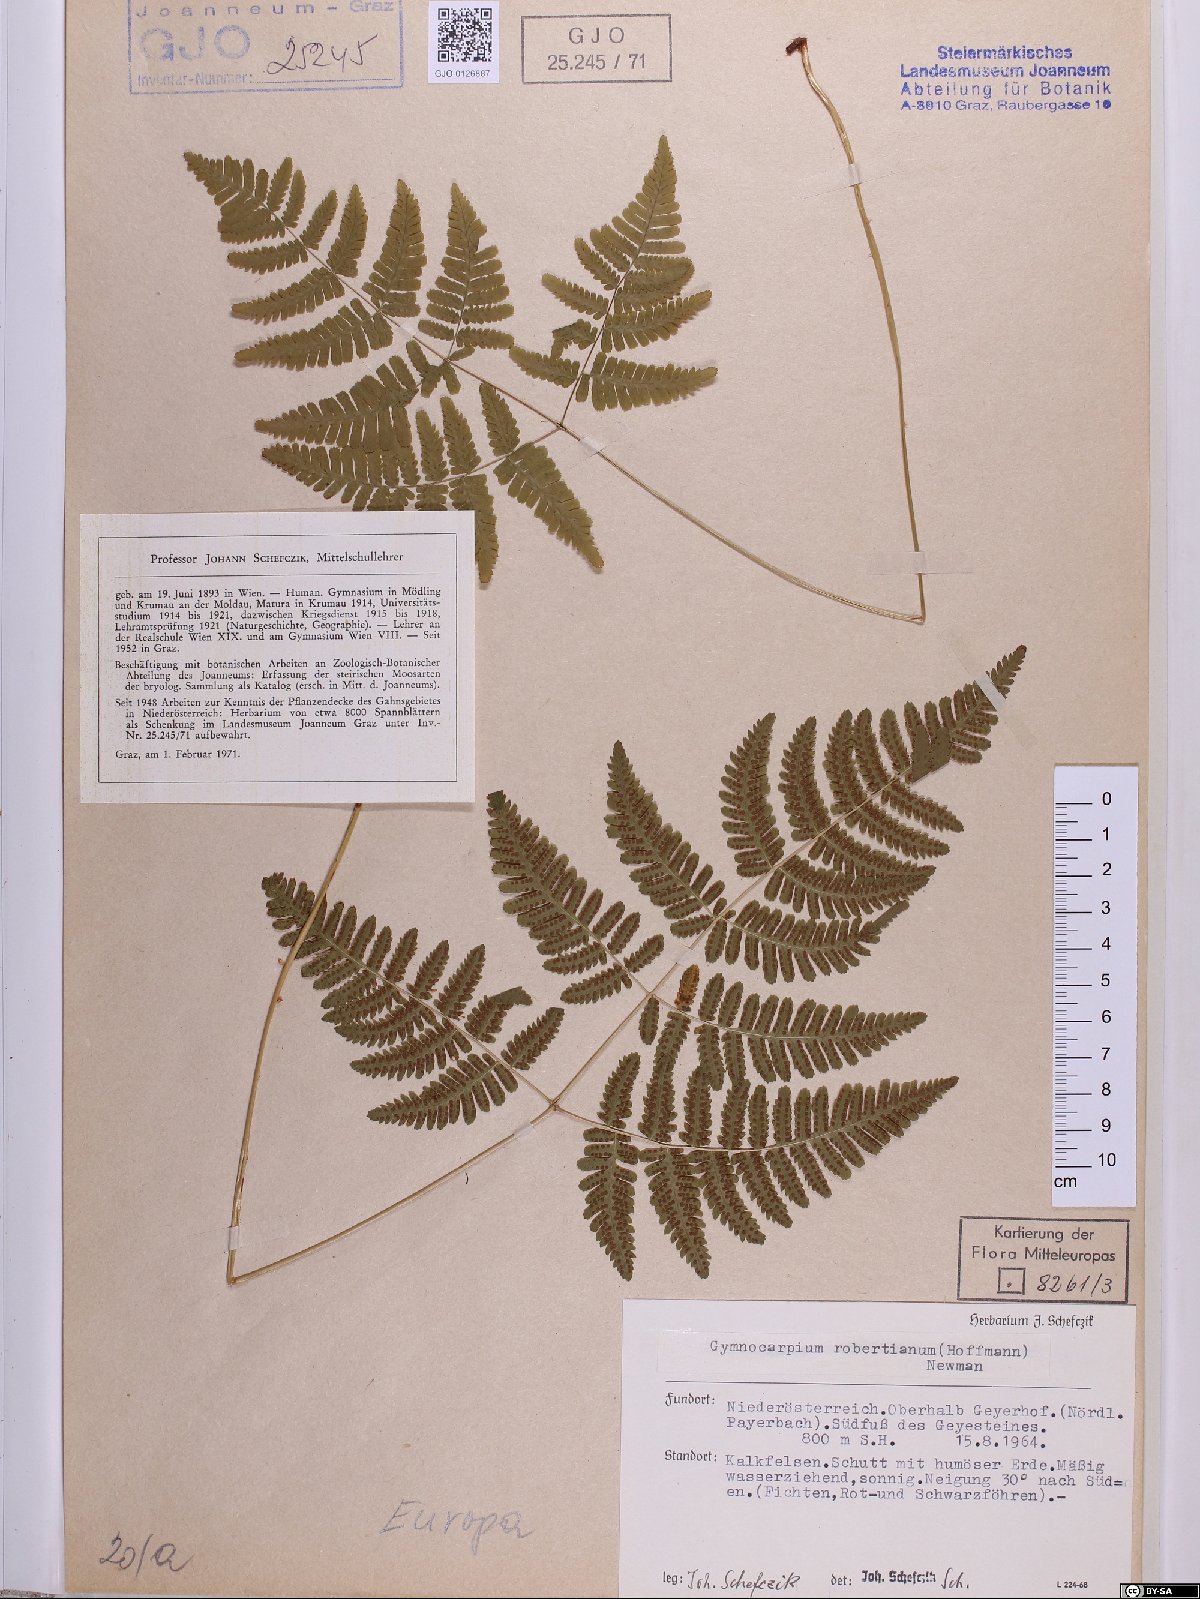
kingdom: Plantae
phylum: Tracheophyta
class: Polypodiopsida
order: Polypodiales
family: Cystopteridaceae
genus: Gymnocarpium
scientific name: Gymnocarpium robertianum
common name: Limestone fern
